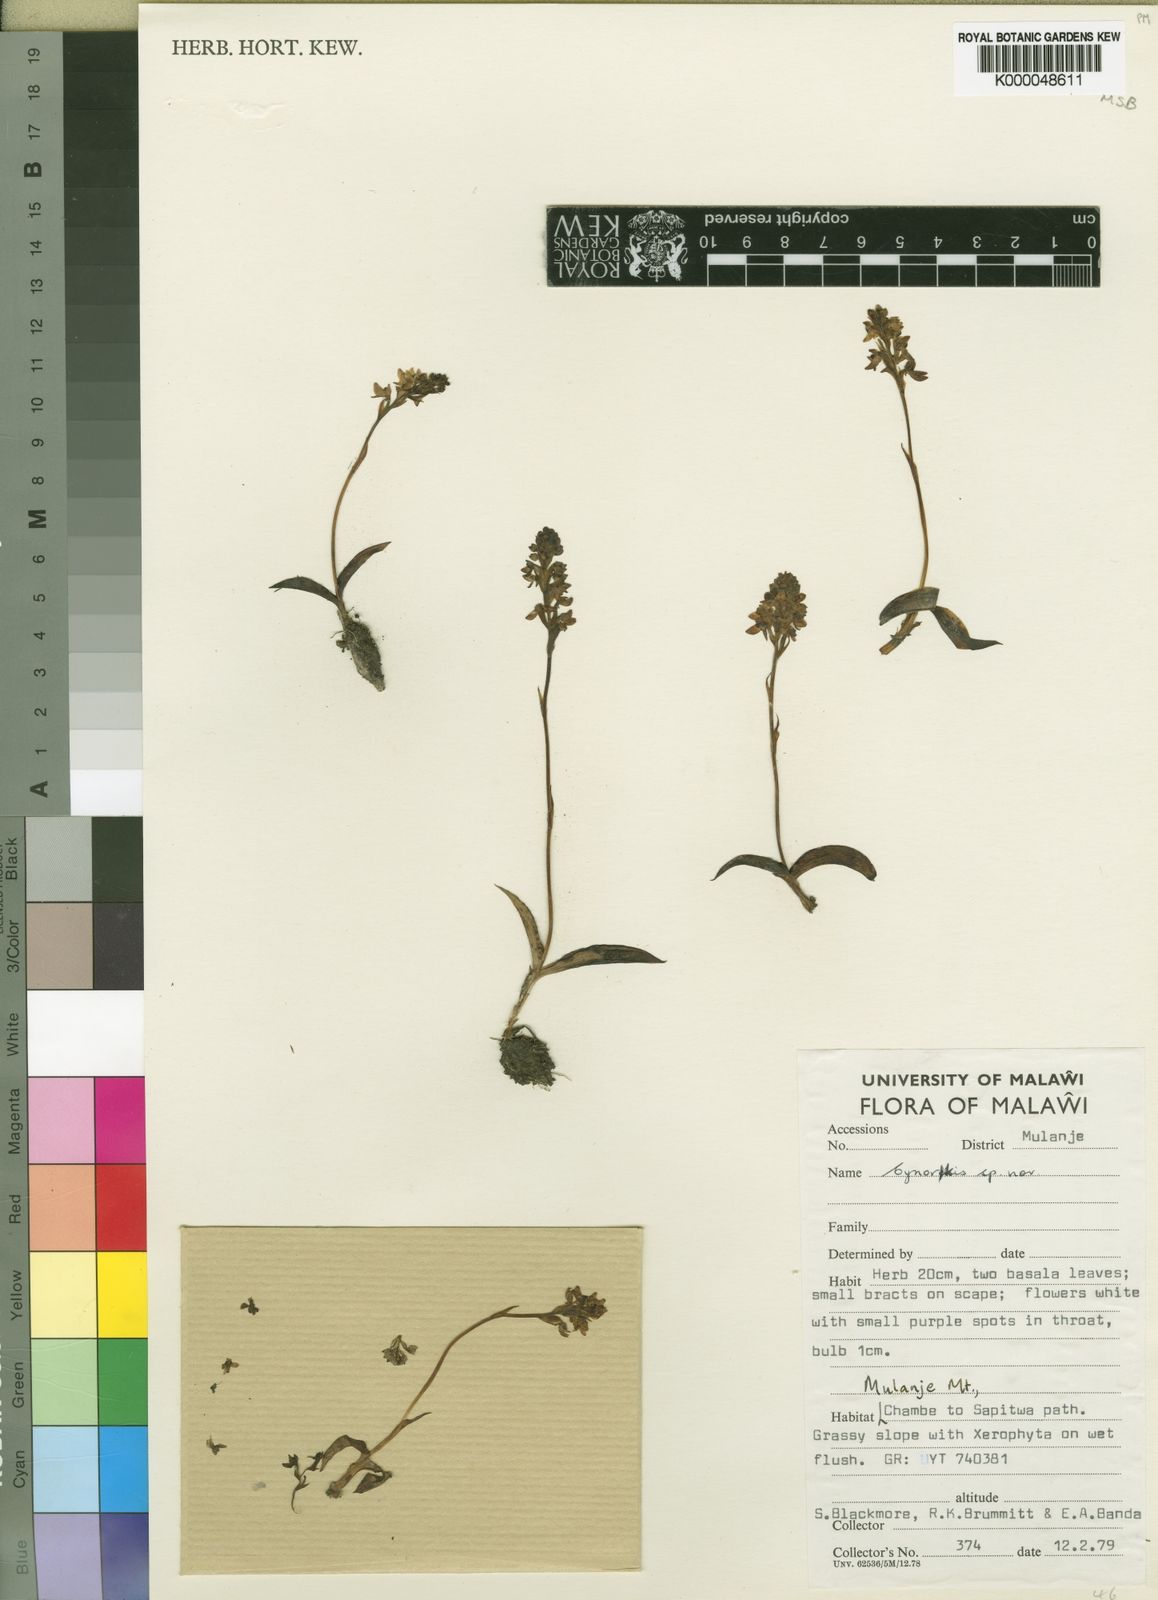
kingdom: Plantae
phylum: Tracheophyta
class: Liliopsida
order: Asparagales
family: Orchidaceae
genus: Cynorkis
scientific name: Cynorkis brevicalcar
